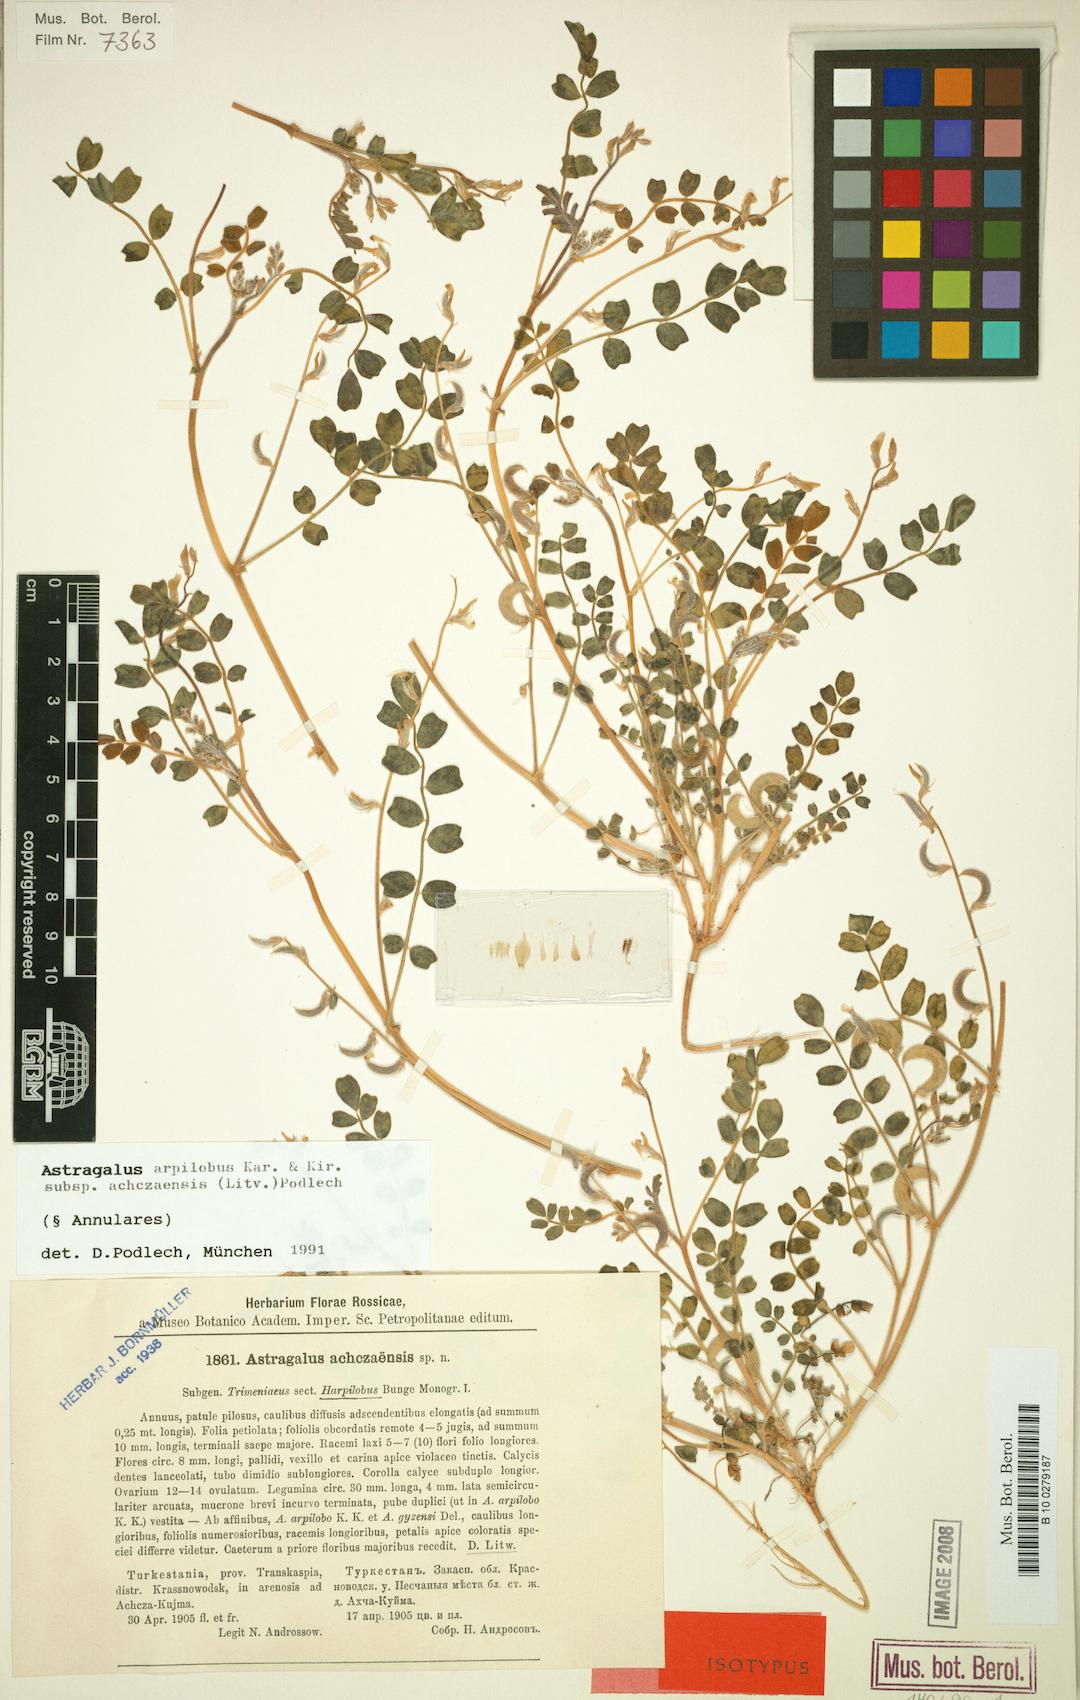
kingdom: Plantae
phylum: Tracheophyta
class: Magnoliopsida
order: Fabales
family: Fabaceae
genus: Astragalus
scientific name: Astragalus arpilobus
